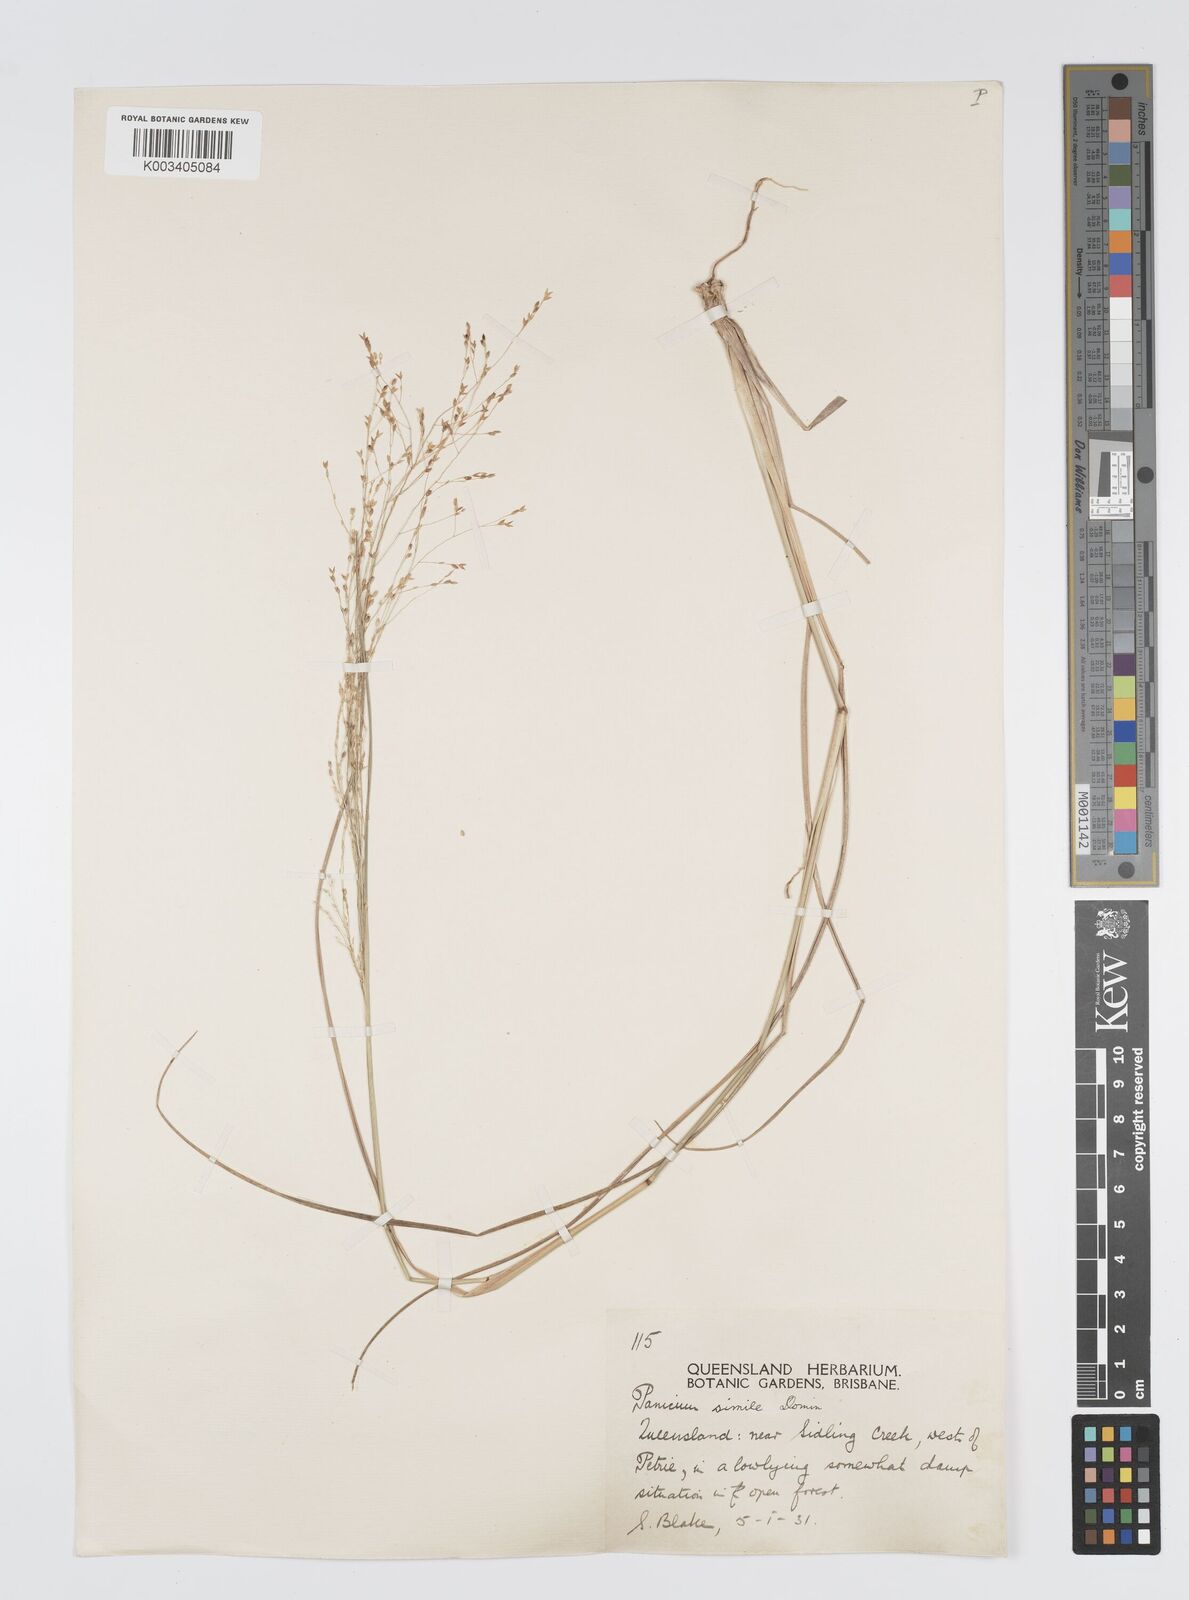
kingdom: Plantae
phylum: Tracheophyta
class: Liliopsida
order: Poales
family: Poaceae
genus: Panicum
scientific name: Panicum simile
